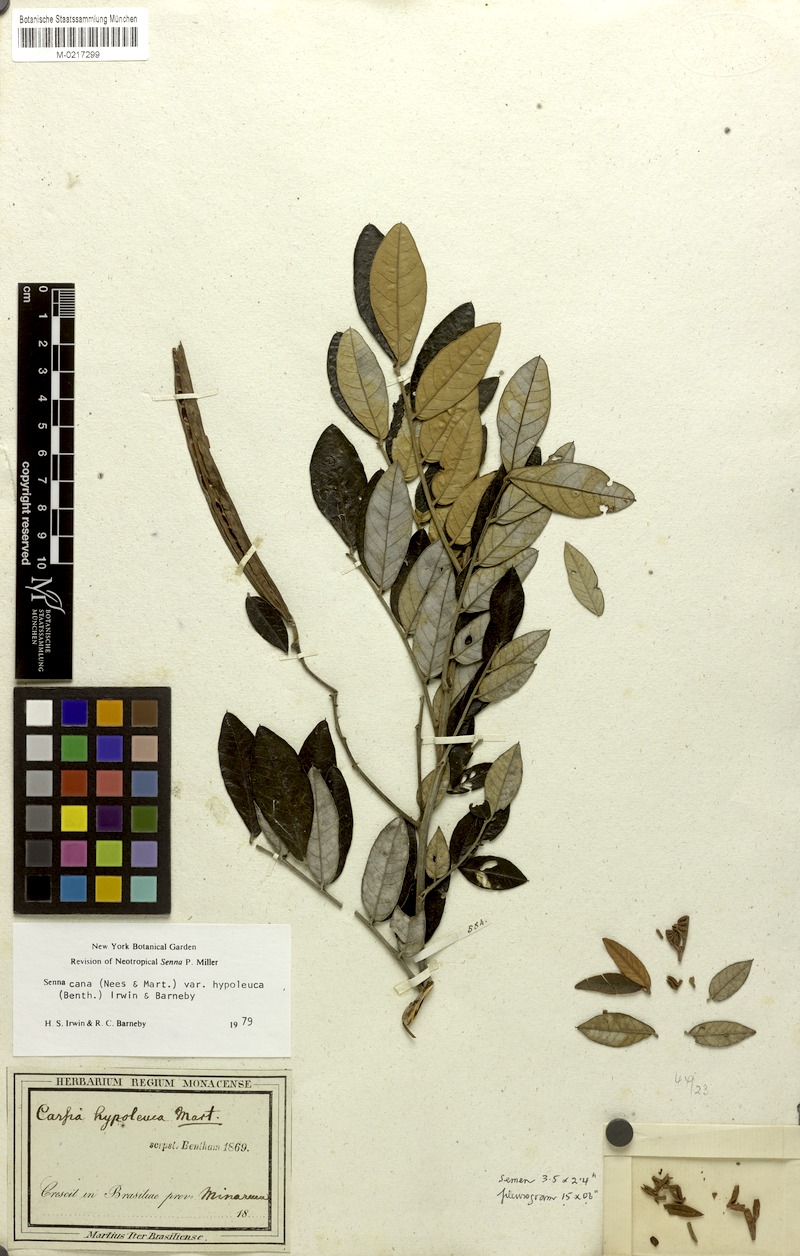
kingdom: Plantae
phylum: Tracheophyta
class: Magnoliopsida
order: Fabales
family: Fabaceae
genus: Senna
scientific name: Senna cana
